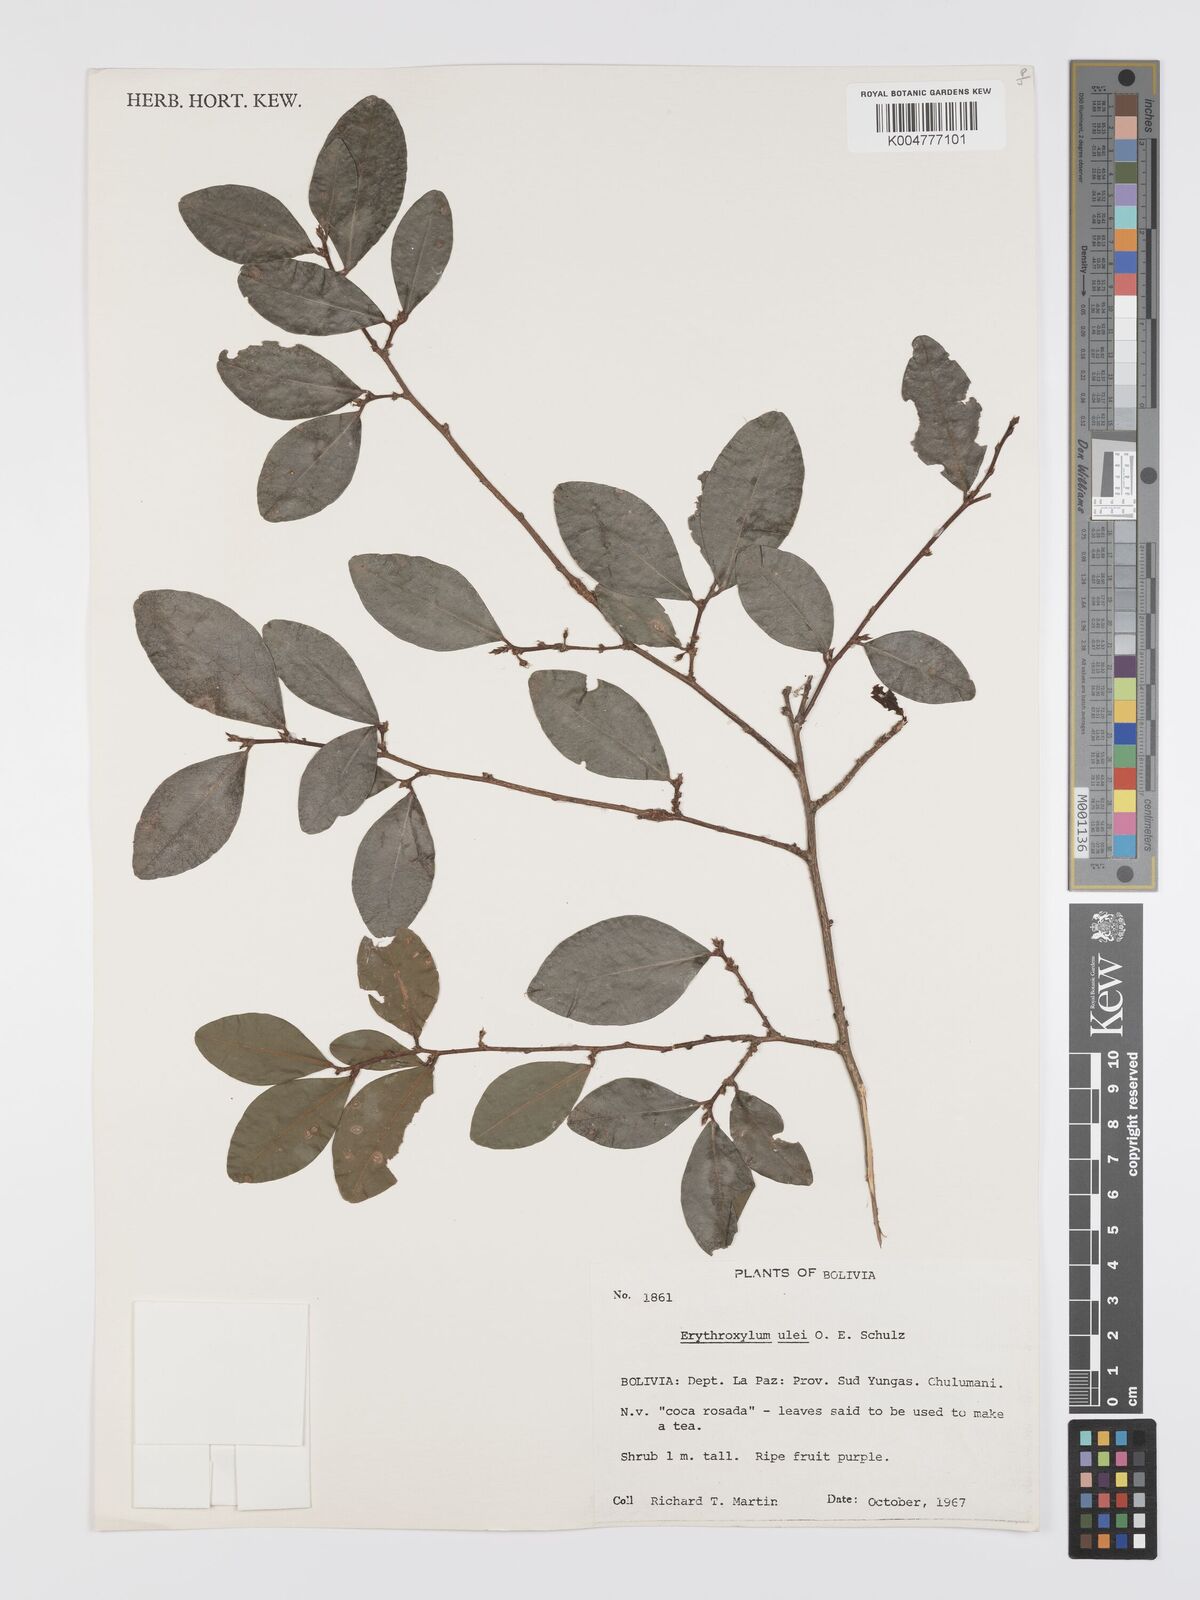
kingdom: Plantae
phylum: Tracheophyta
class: Magnoliopsida
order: Malpighiales
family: Erythroxylaceae
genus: Erythroxylum
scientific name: Erythroxylum ulei
